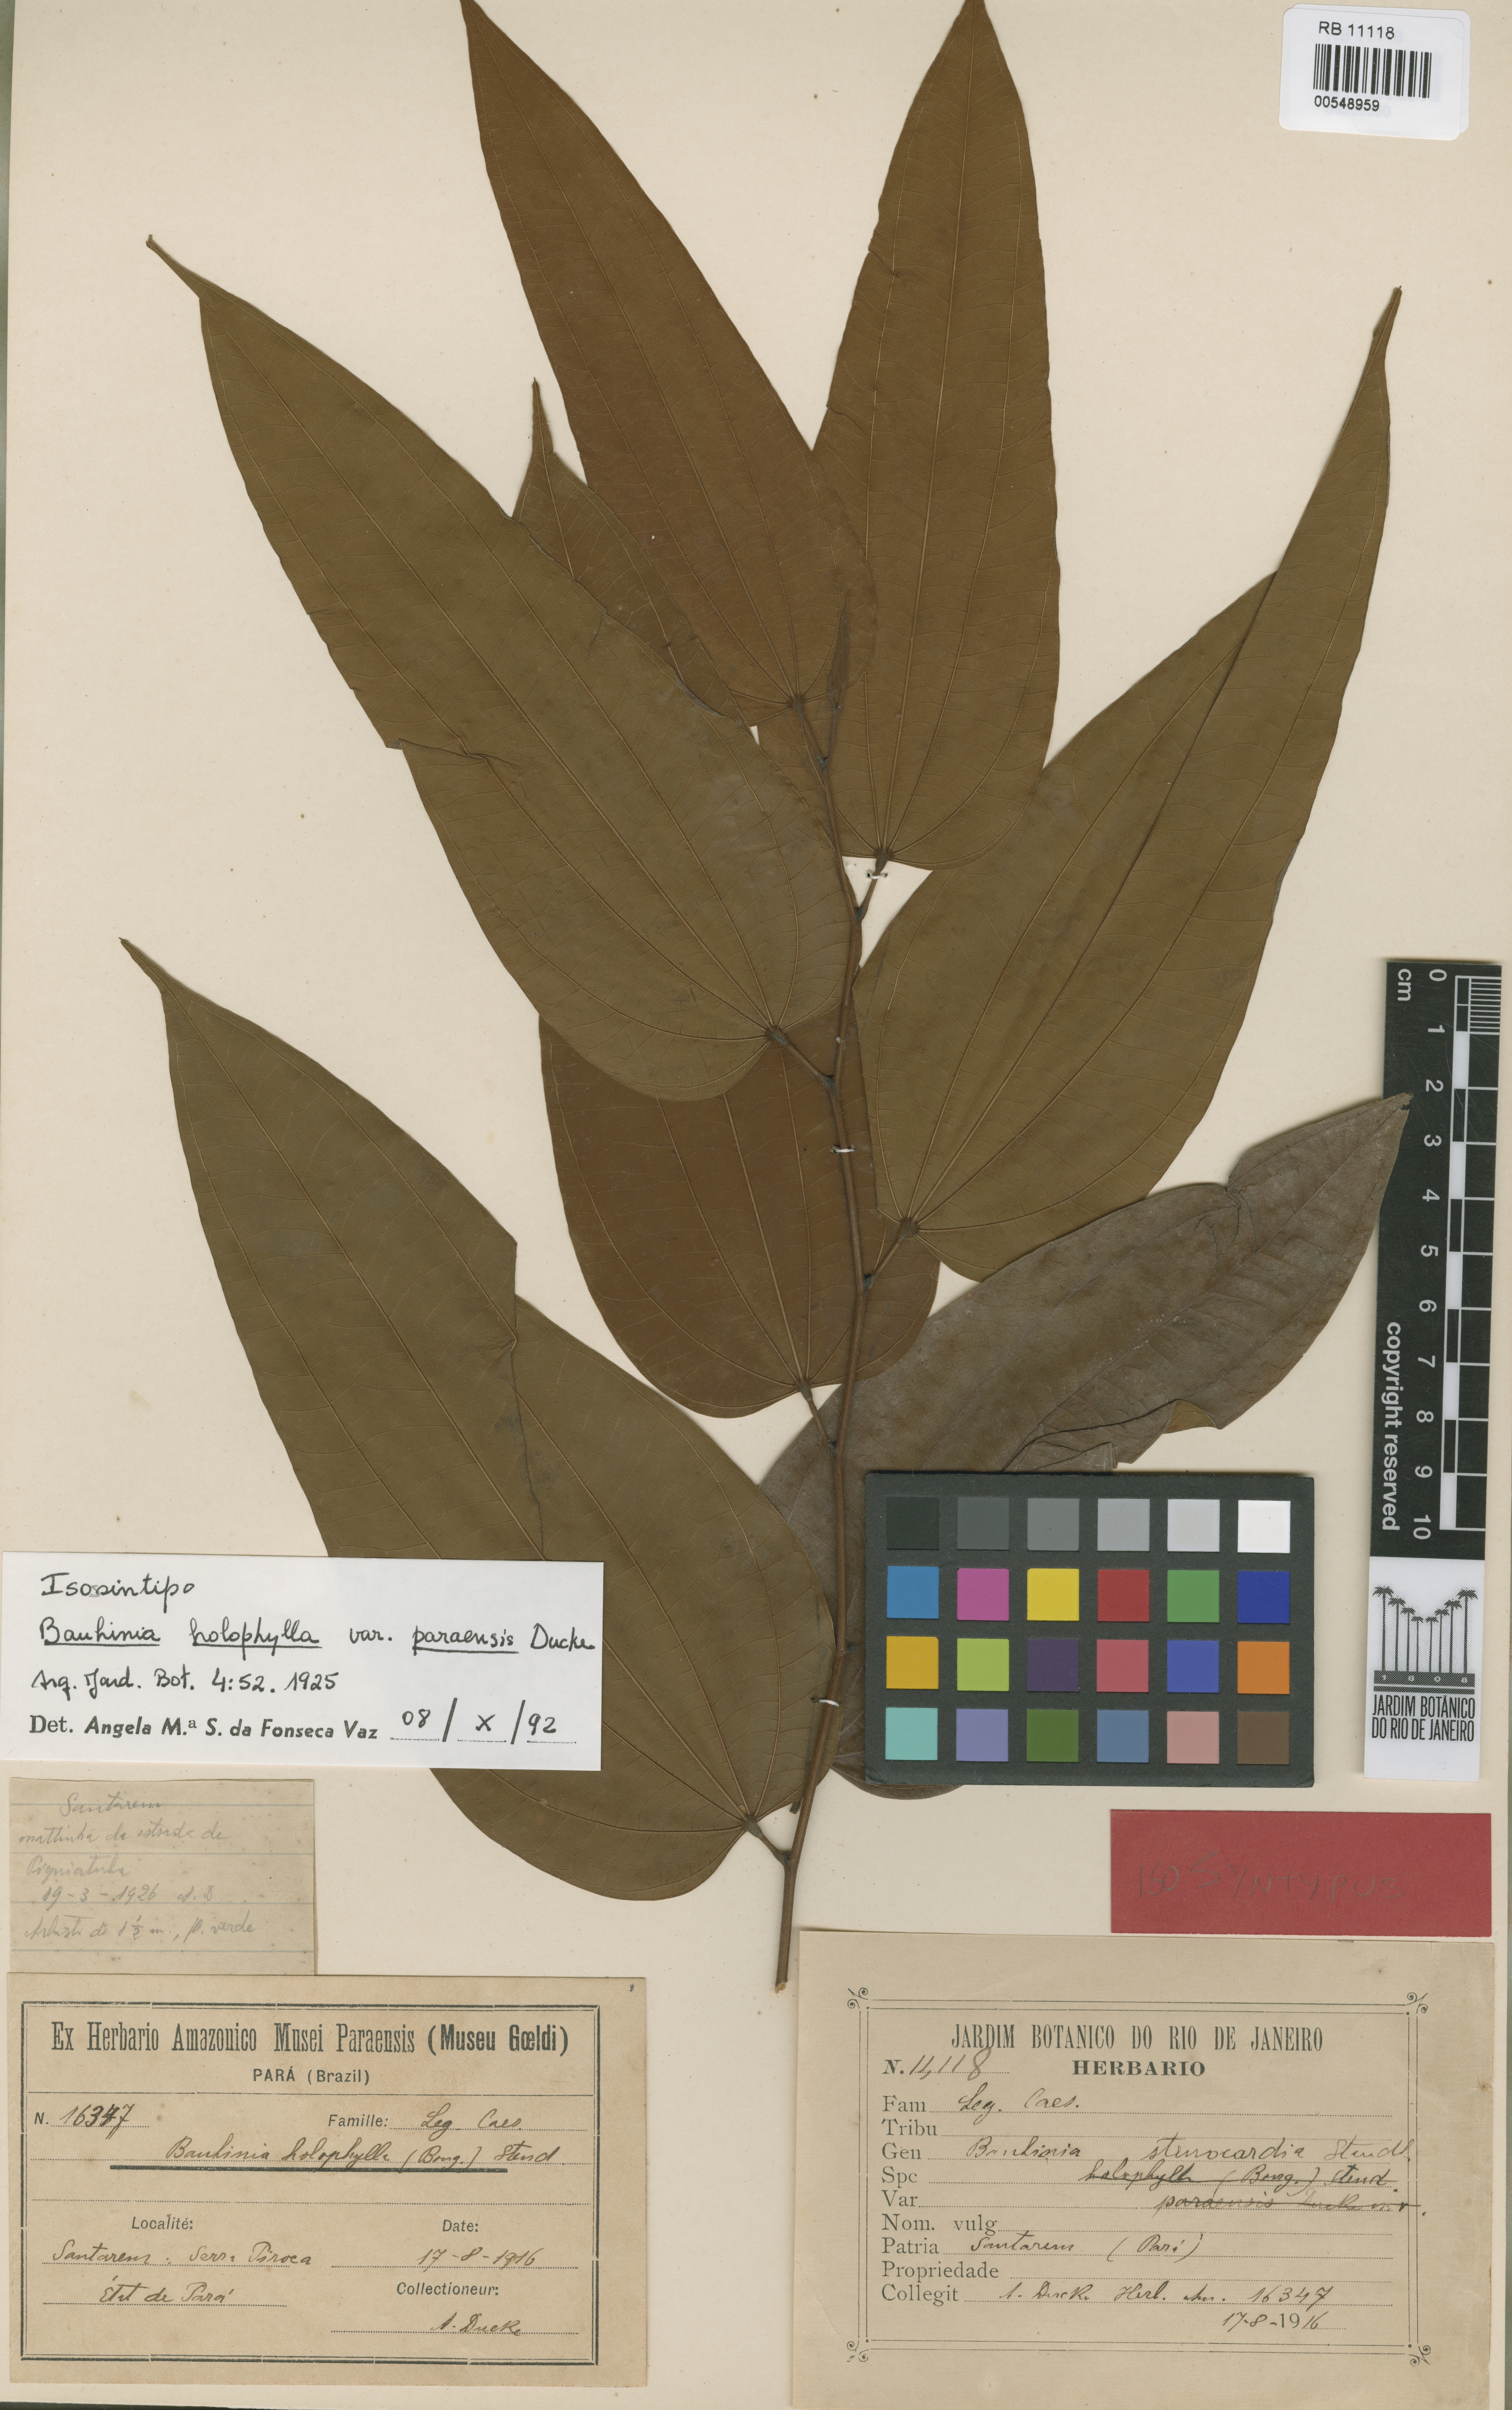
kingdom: Plantae
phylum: Tracheophyta
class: Magnoliopsida
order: Fabales
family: Fabaceae
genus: Bauhinia
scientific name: Bauhinia longicuspis
